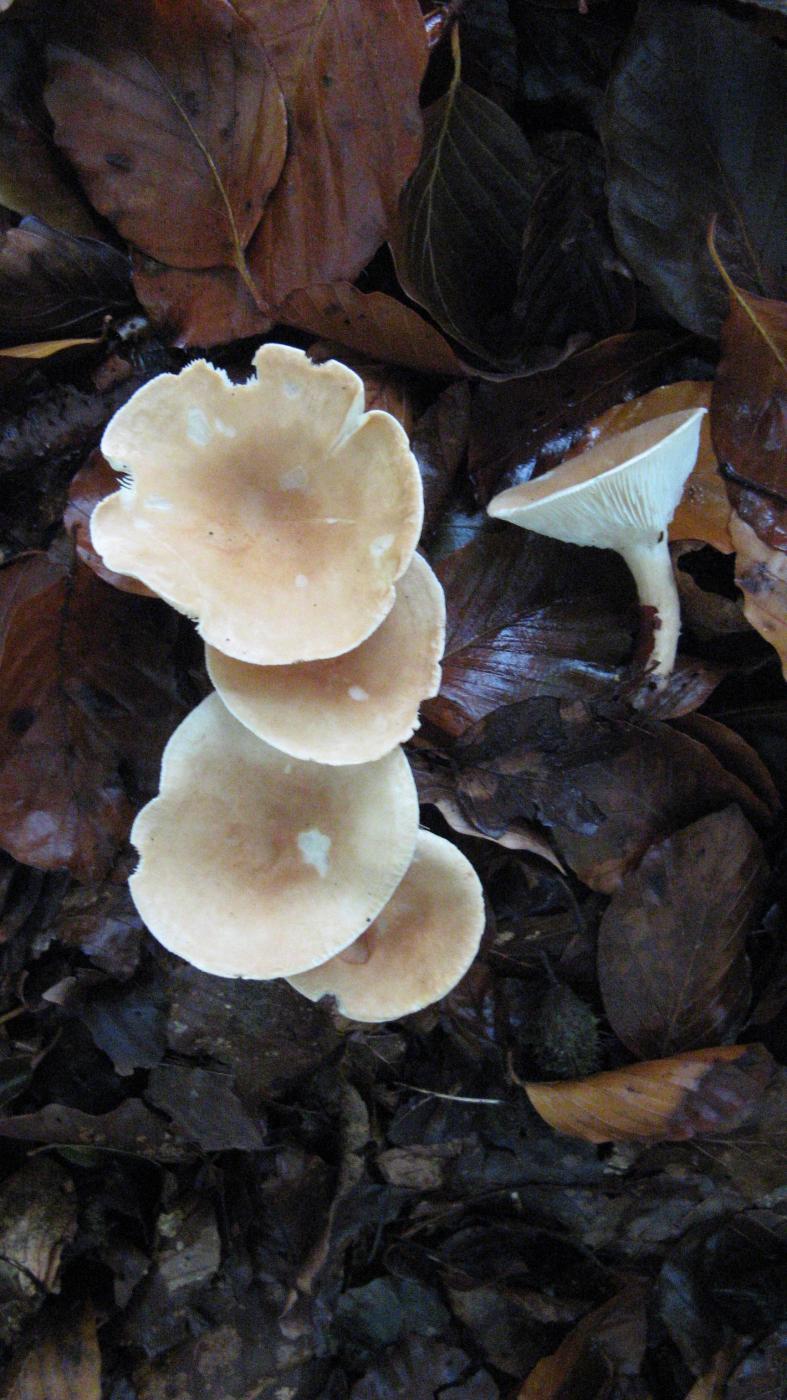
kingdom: Fungi
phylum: Basidiomycota
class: Agaricomycetes
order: Agaricales
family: Tricholomataceae
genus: Infundibulicybe
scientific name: Infundibulicybe gibba
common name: almindelig tragthat
